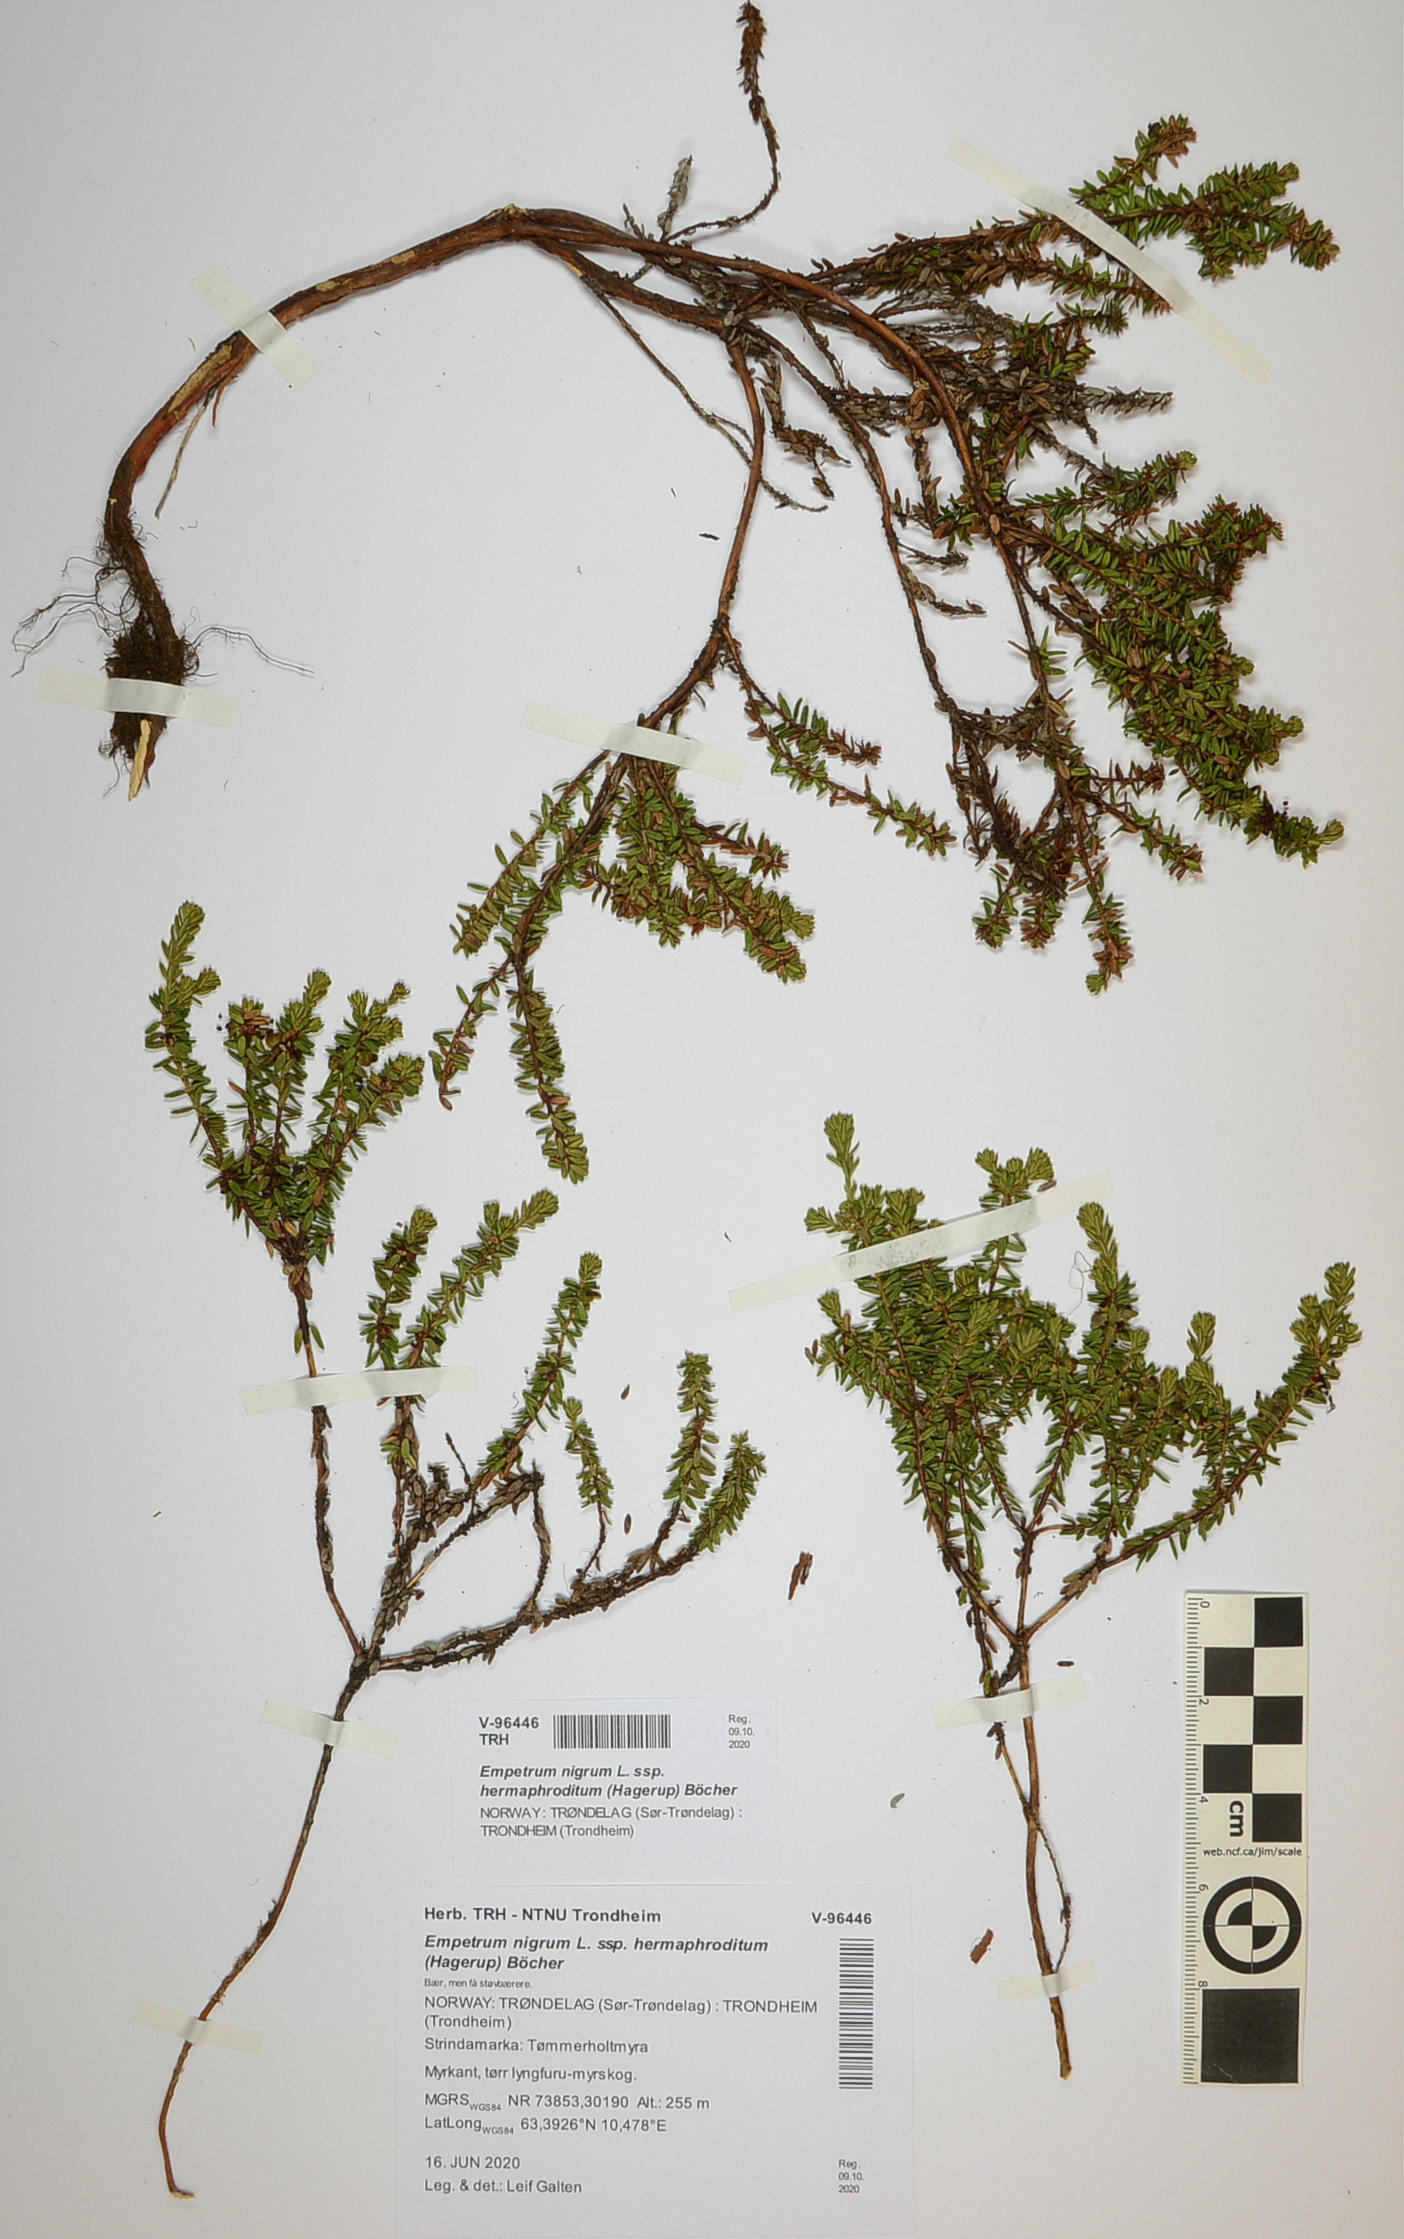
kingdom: Plantae
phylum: Tracheophyta
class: Magnoliopsida
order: Ericales
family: Ericaceae
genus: Empetrum
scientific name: Empetrum hermaphroditum
